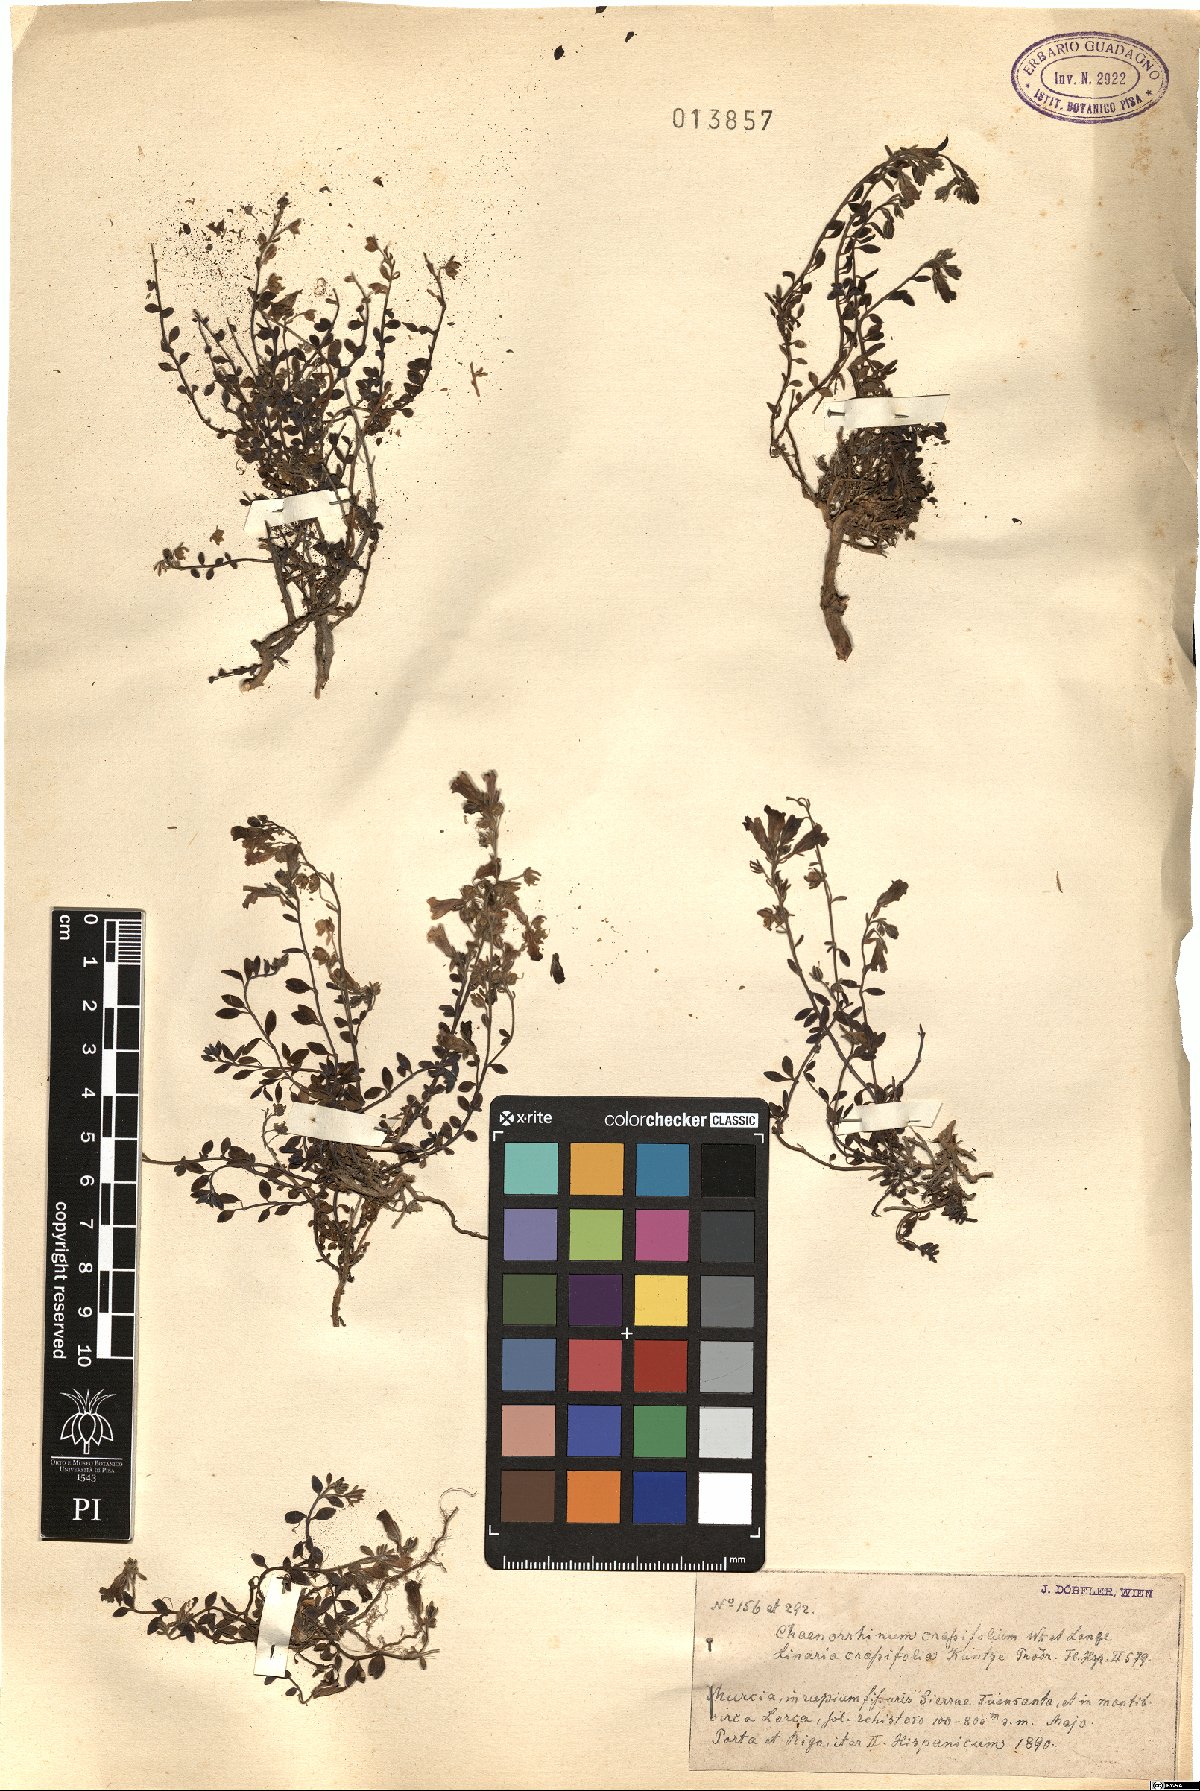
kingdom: Plantae
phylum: Tracheophyta
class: Magnoliopsida
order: Lamiales
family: Plantaginaceae
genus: Chaenorhinum
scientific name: Chaenorhinum crassifolium
